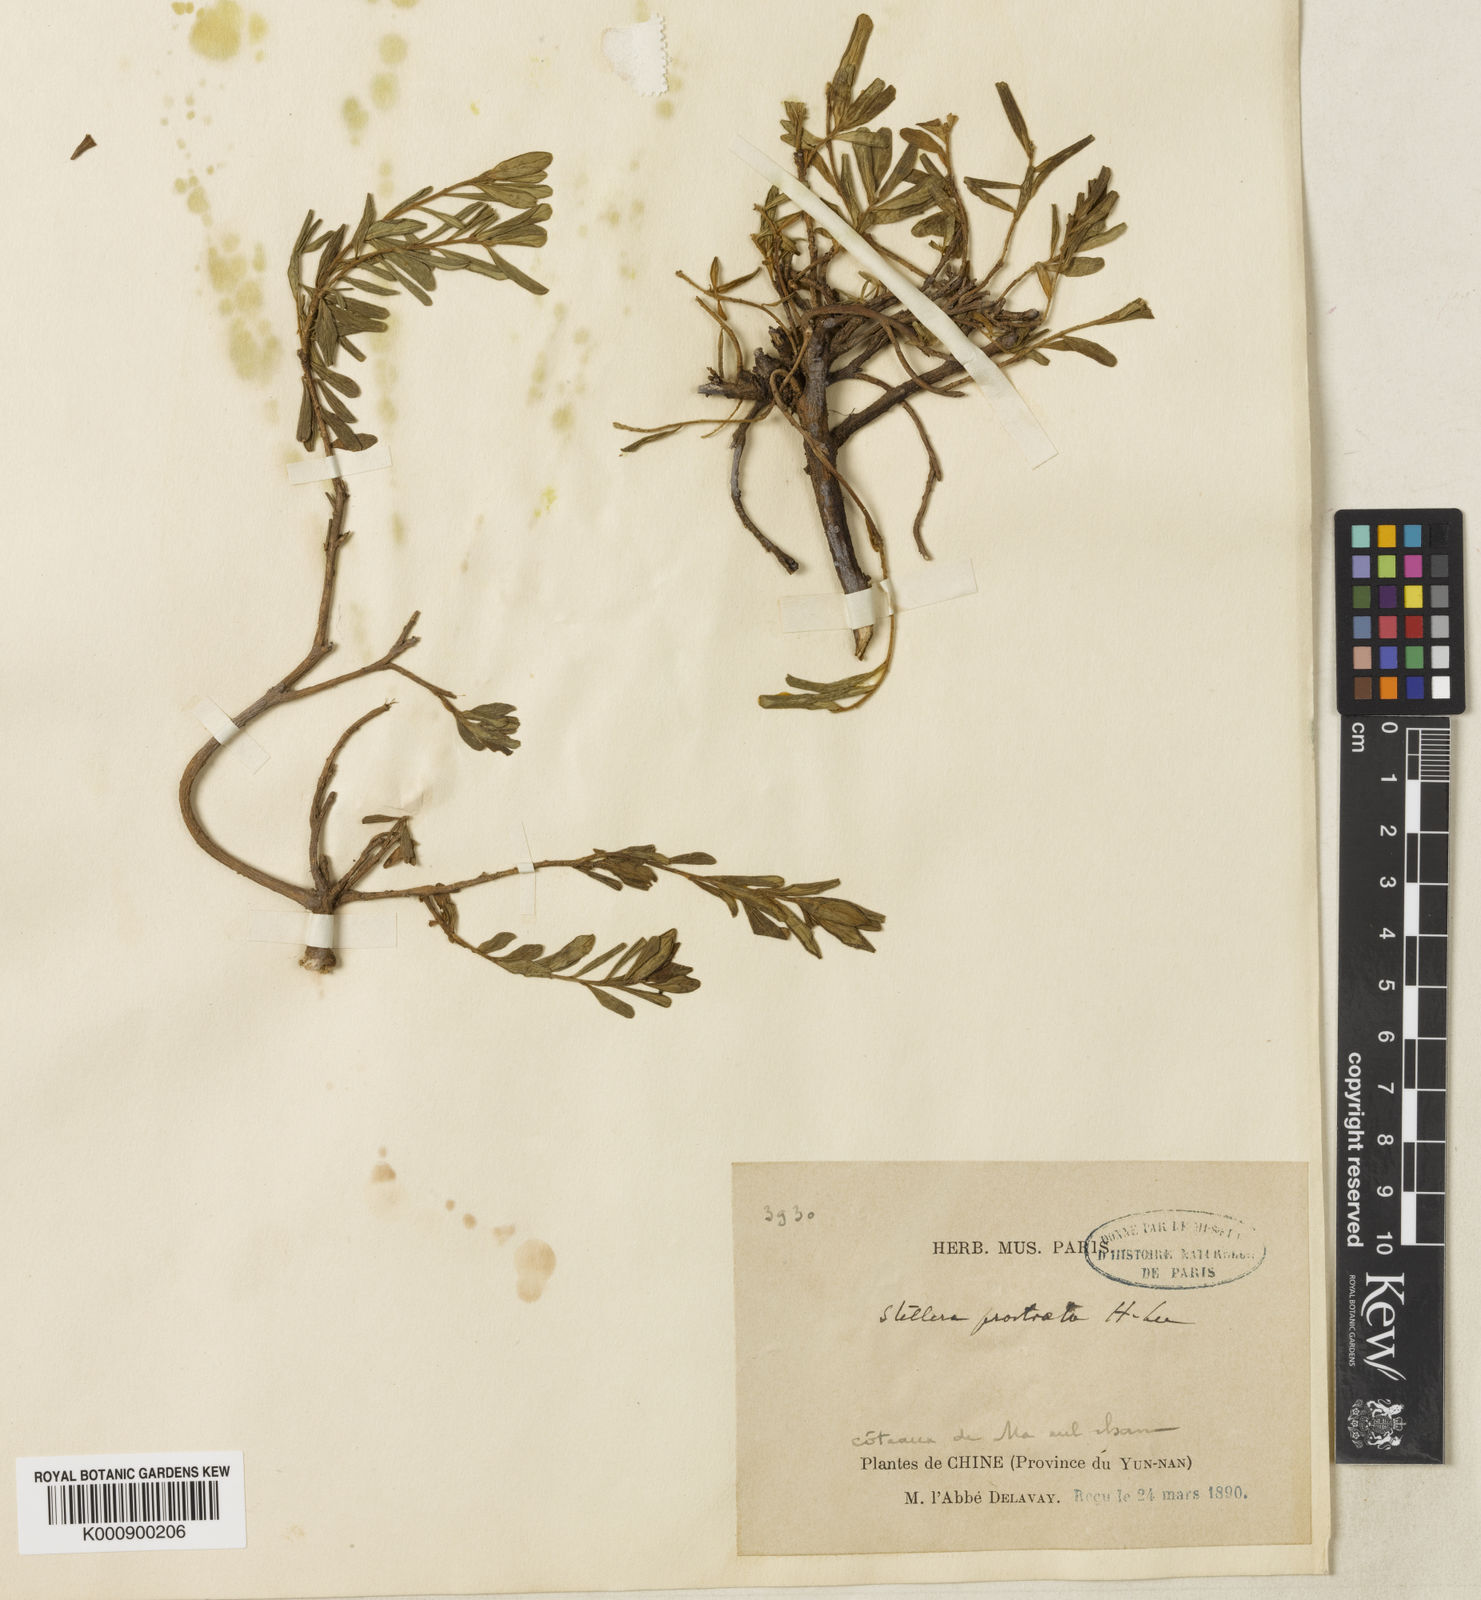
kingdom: Plantae
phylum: Tracheophyta
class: Magnoliopsida
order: Malvales
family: Thymelaeaceae
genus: Wikstroemia
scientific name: Wikstroemia rosmarinifolia
